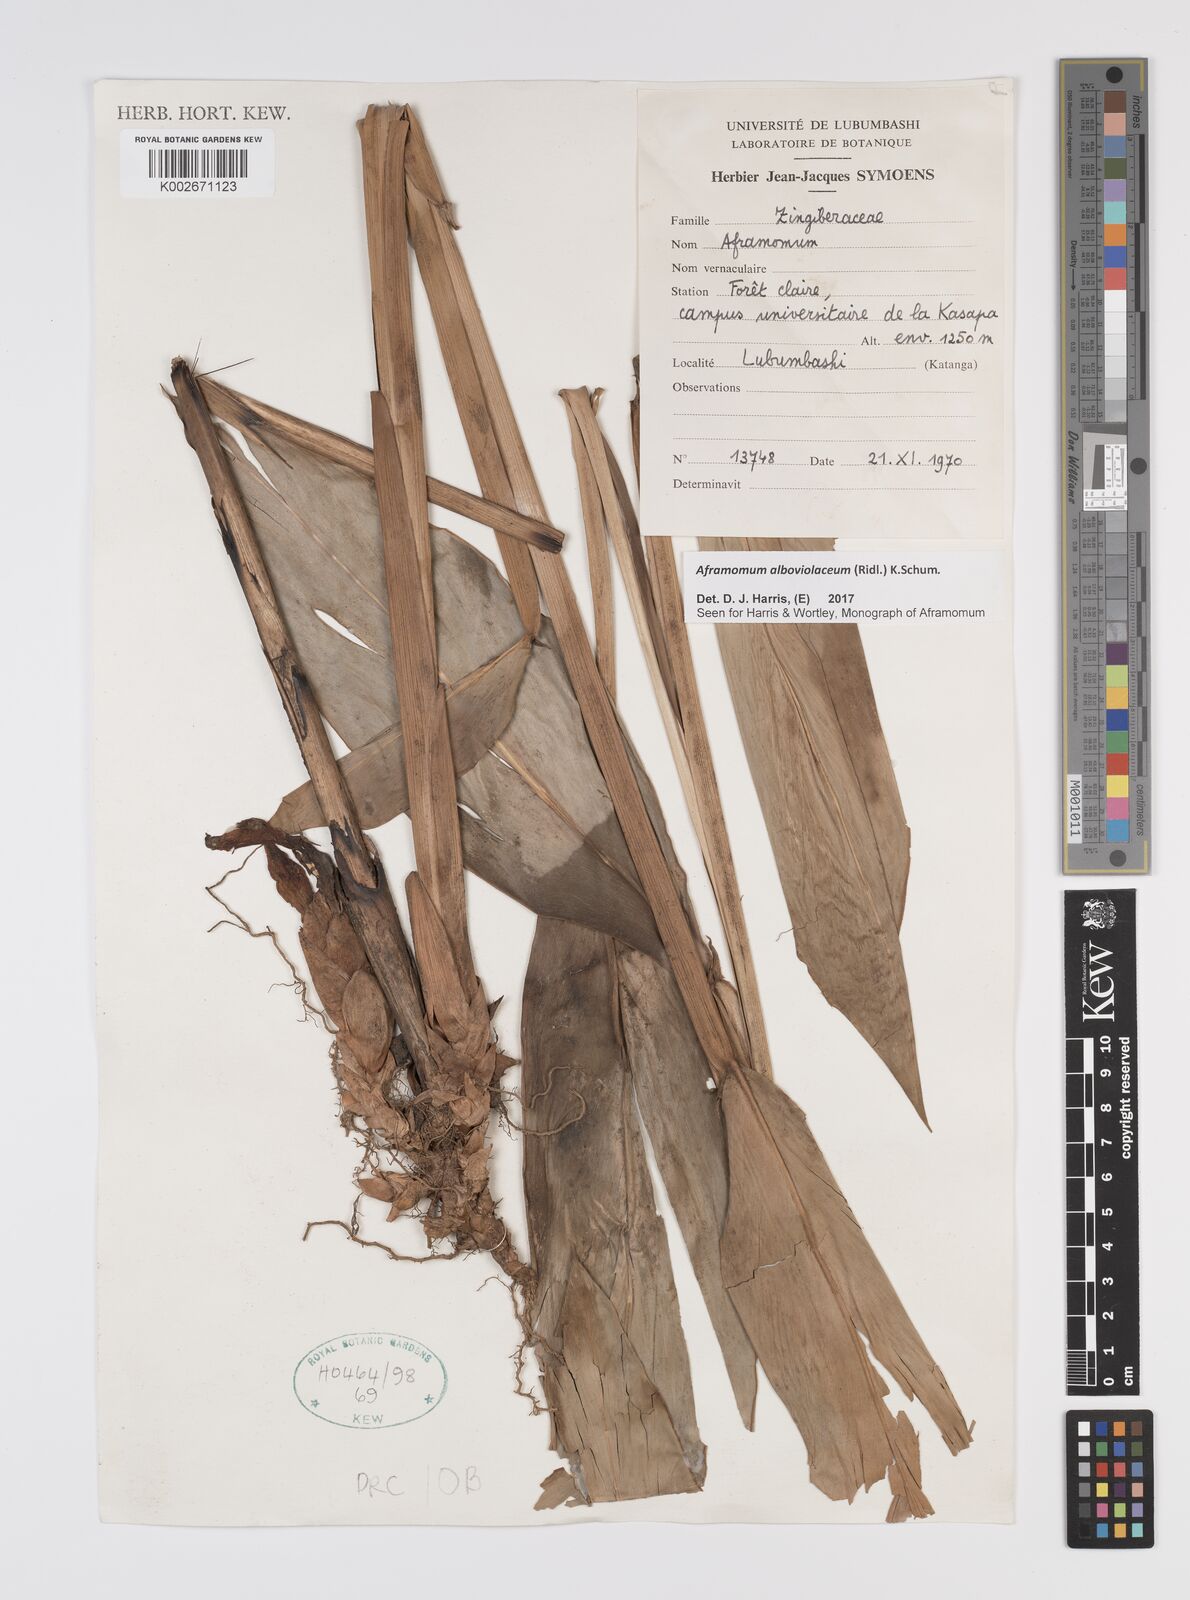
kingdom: Plantae
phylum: Tracheophyta
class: Liliopsida
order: Zingiberales
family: Zingiberaceae
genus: Aframomum
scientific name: Aframomum alboviolaceum
